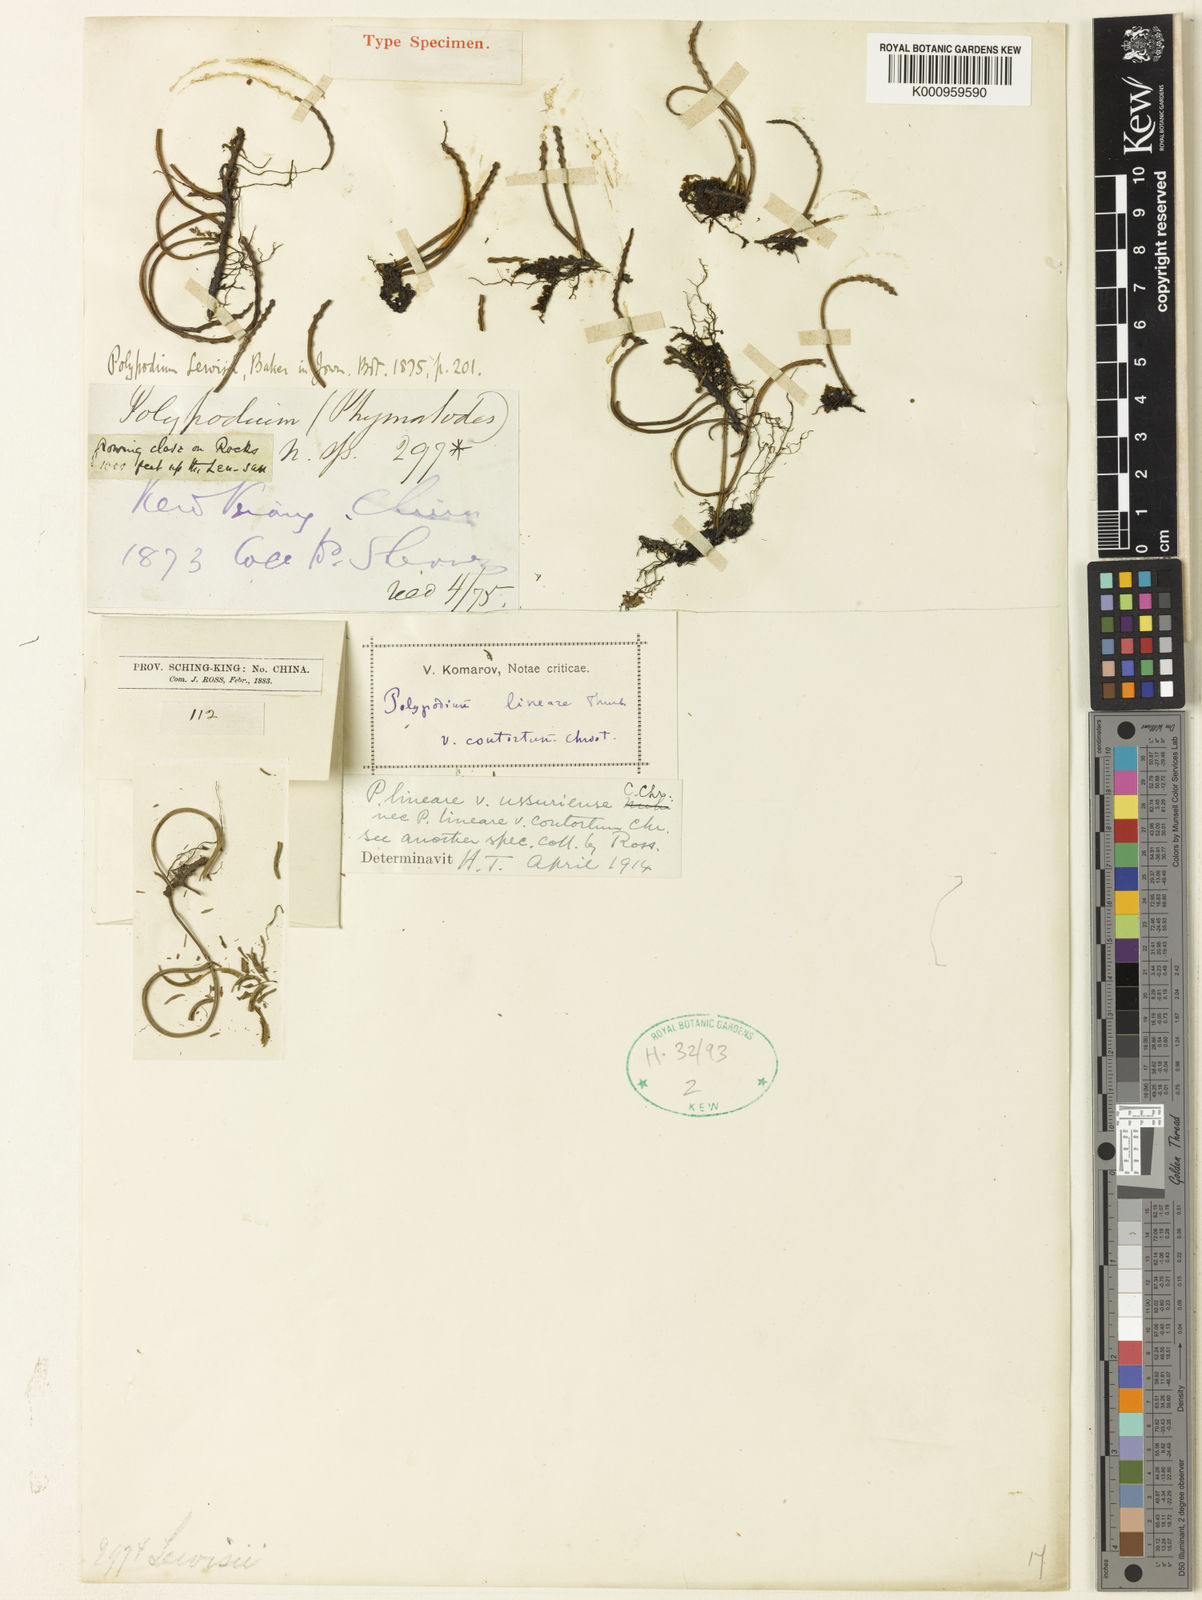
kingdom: Plantae
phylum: Tracheophyta
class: Polypodiopsida
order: Polypodiales
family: Polypodiaceae
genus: Lepisorus
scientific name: Lepisorus lewisii
